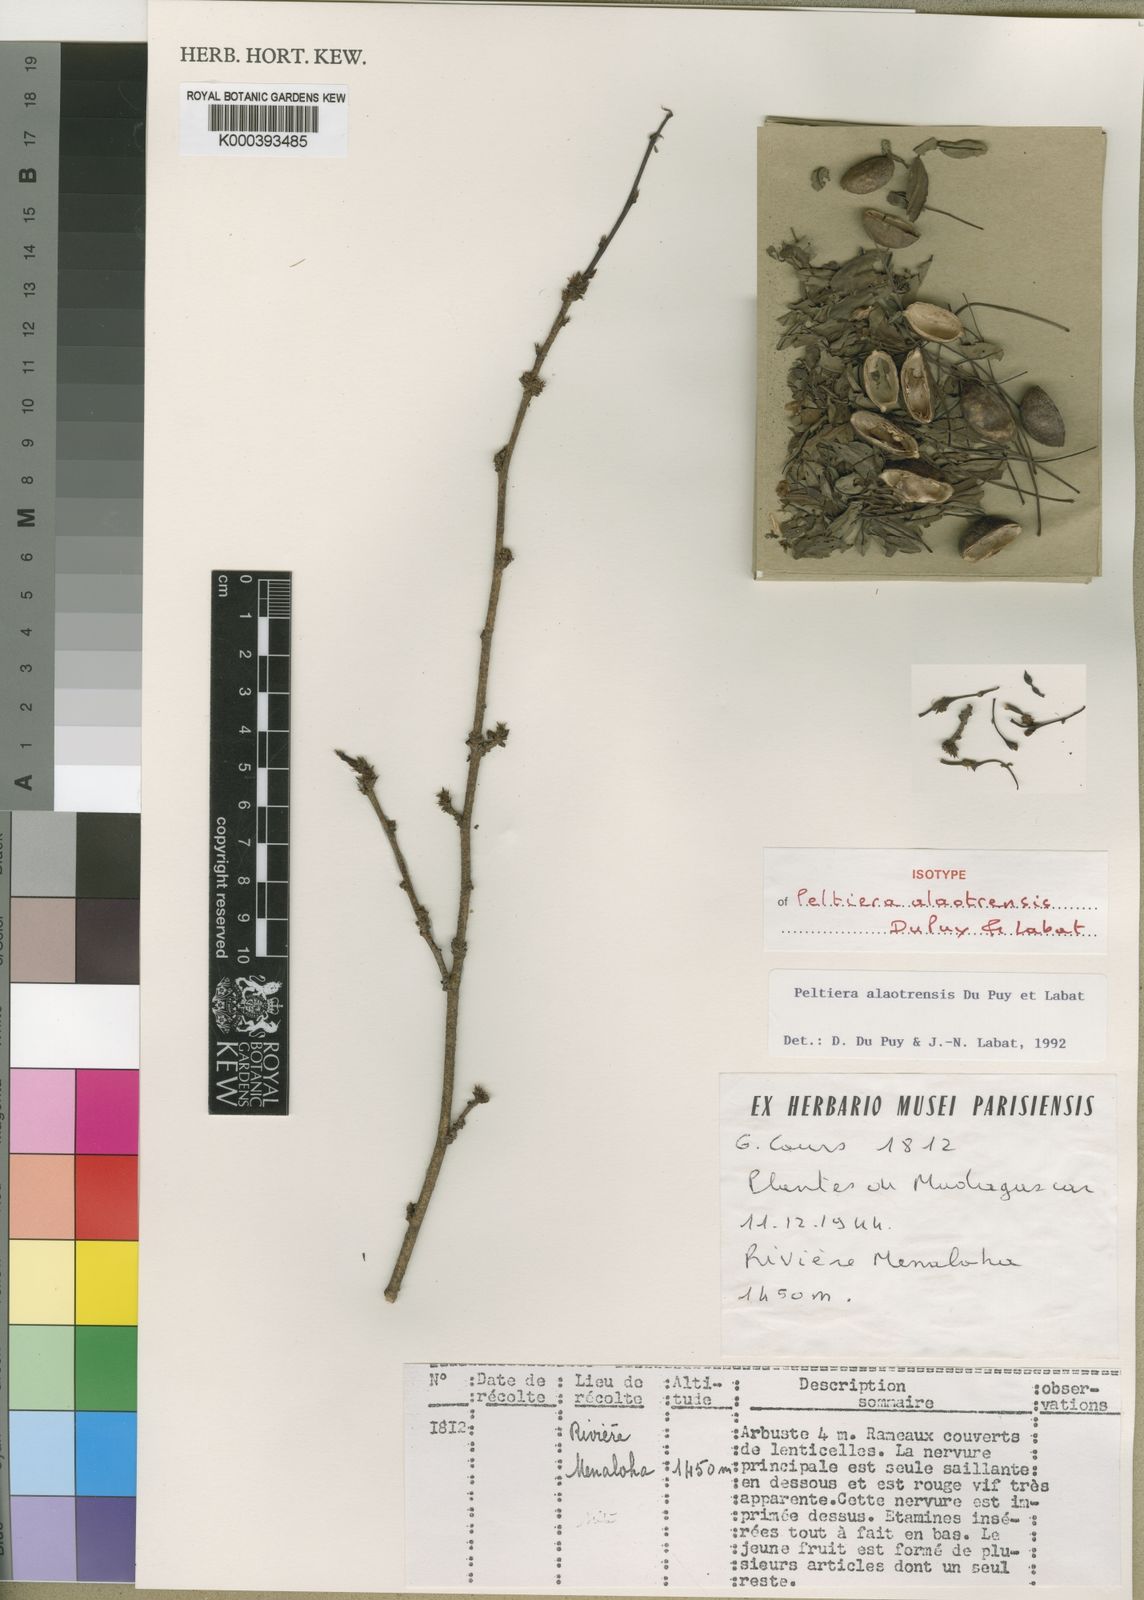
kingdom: Plantae
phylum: Tracheophyta
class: Magnoliopsida
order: Fabales
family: Fabaceae
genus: Ormocarpopsis
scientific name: Ormocarpopsis nitida
